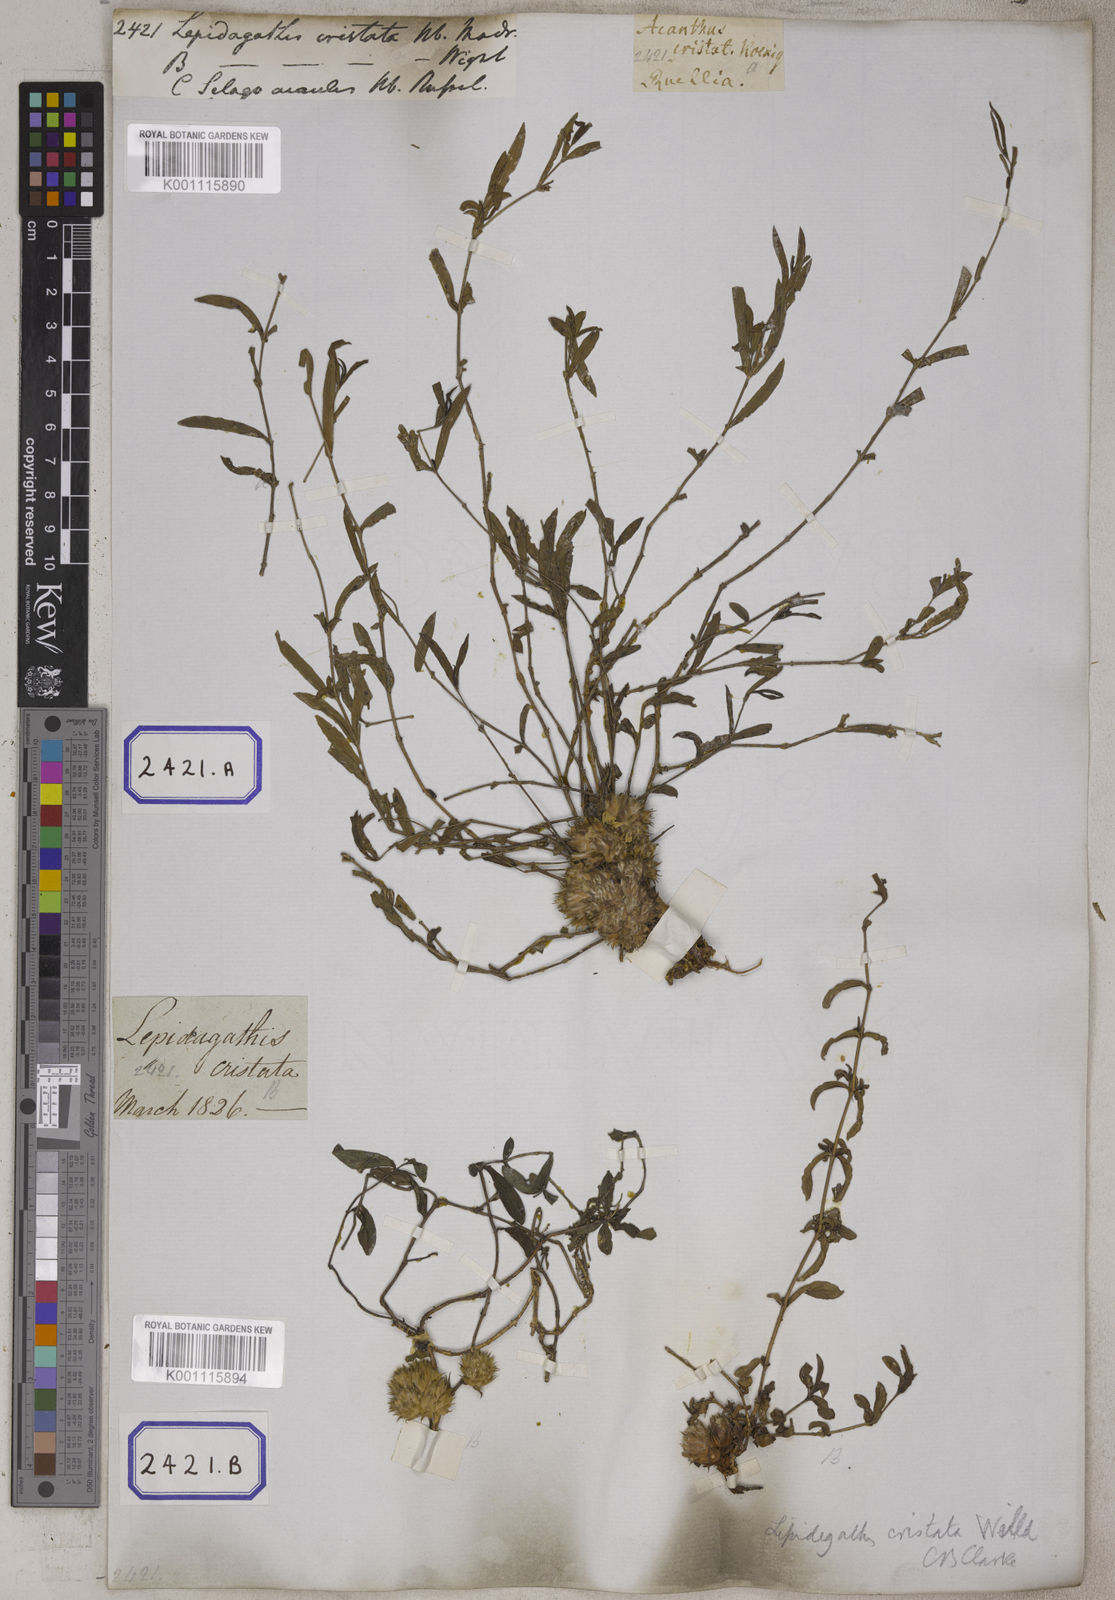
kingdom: Plantae
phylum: Tracheophyta
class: Magnoliopsida
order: Lamiales
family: Acanthaceae
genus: Lepidagathis
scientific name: Lepidagathis cristata
